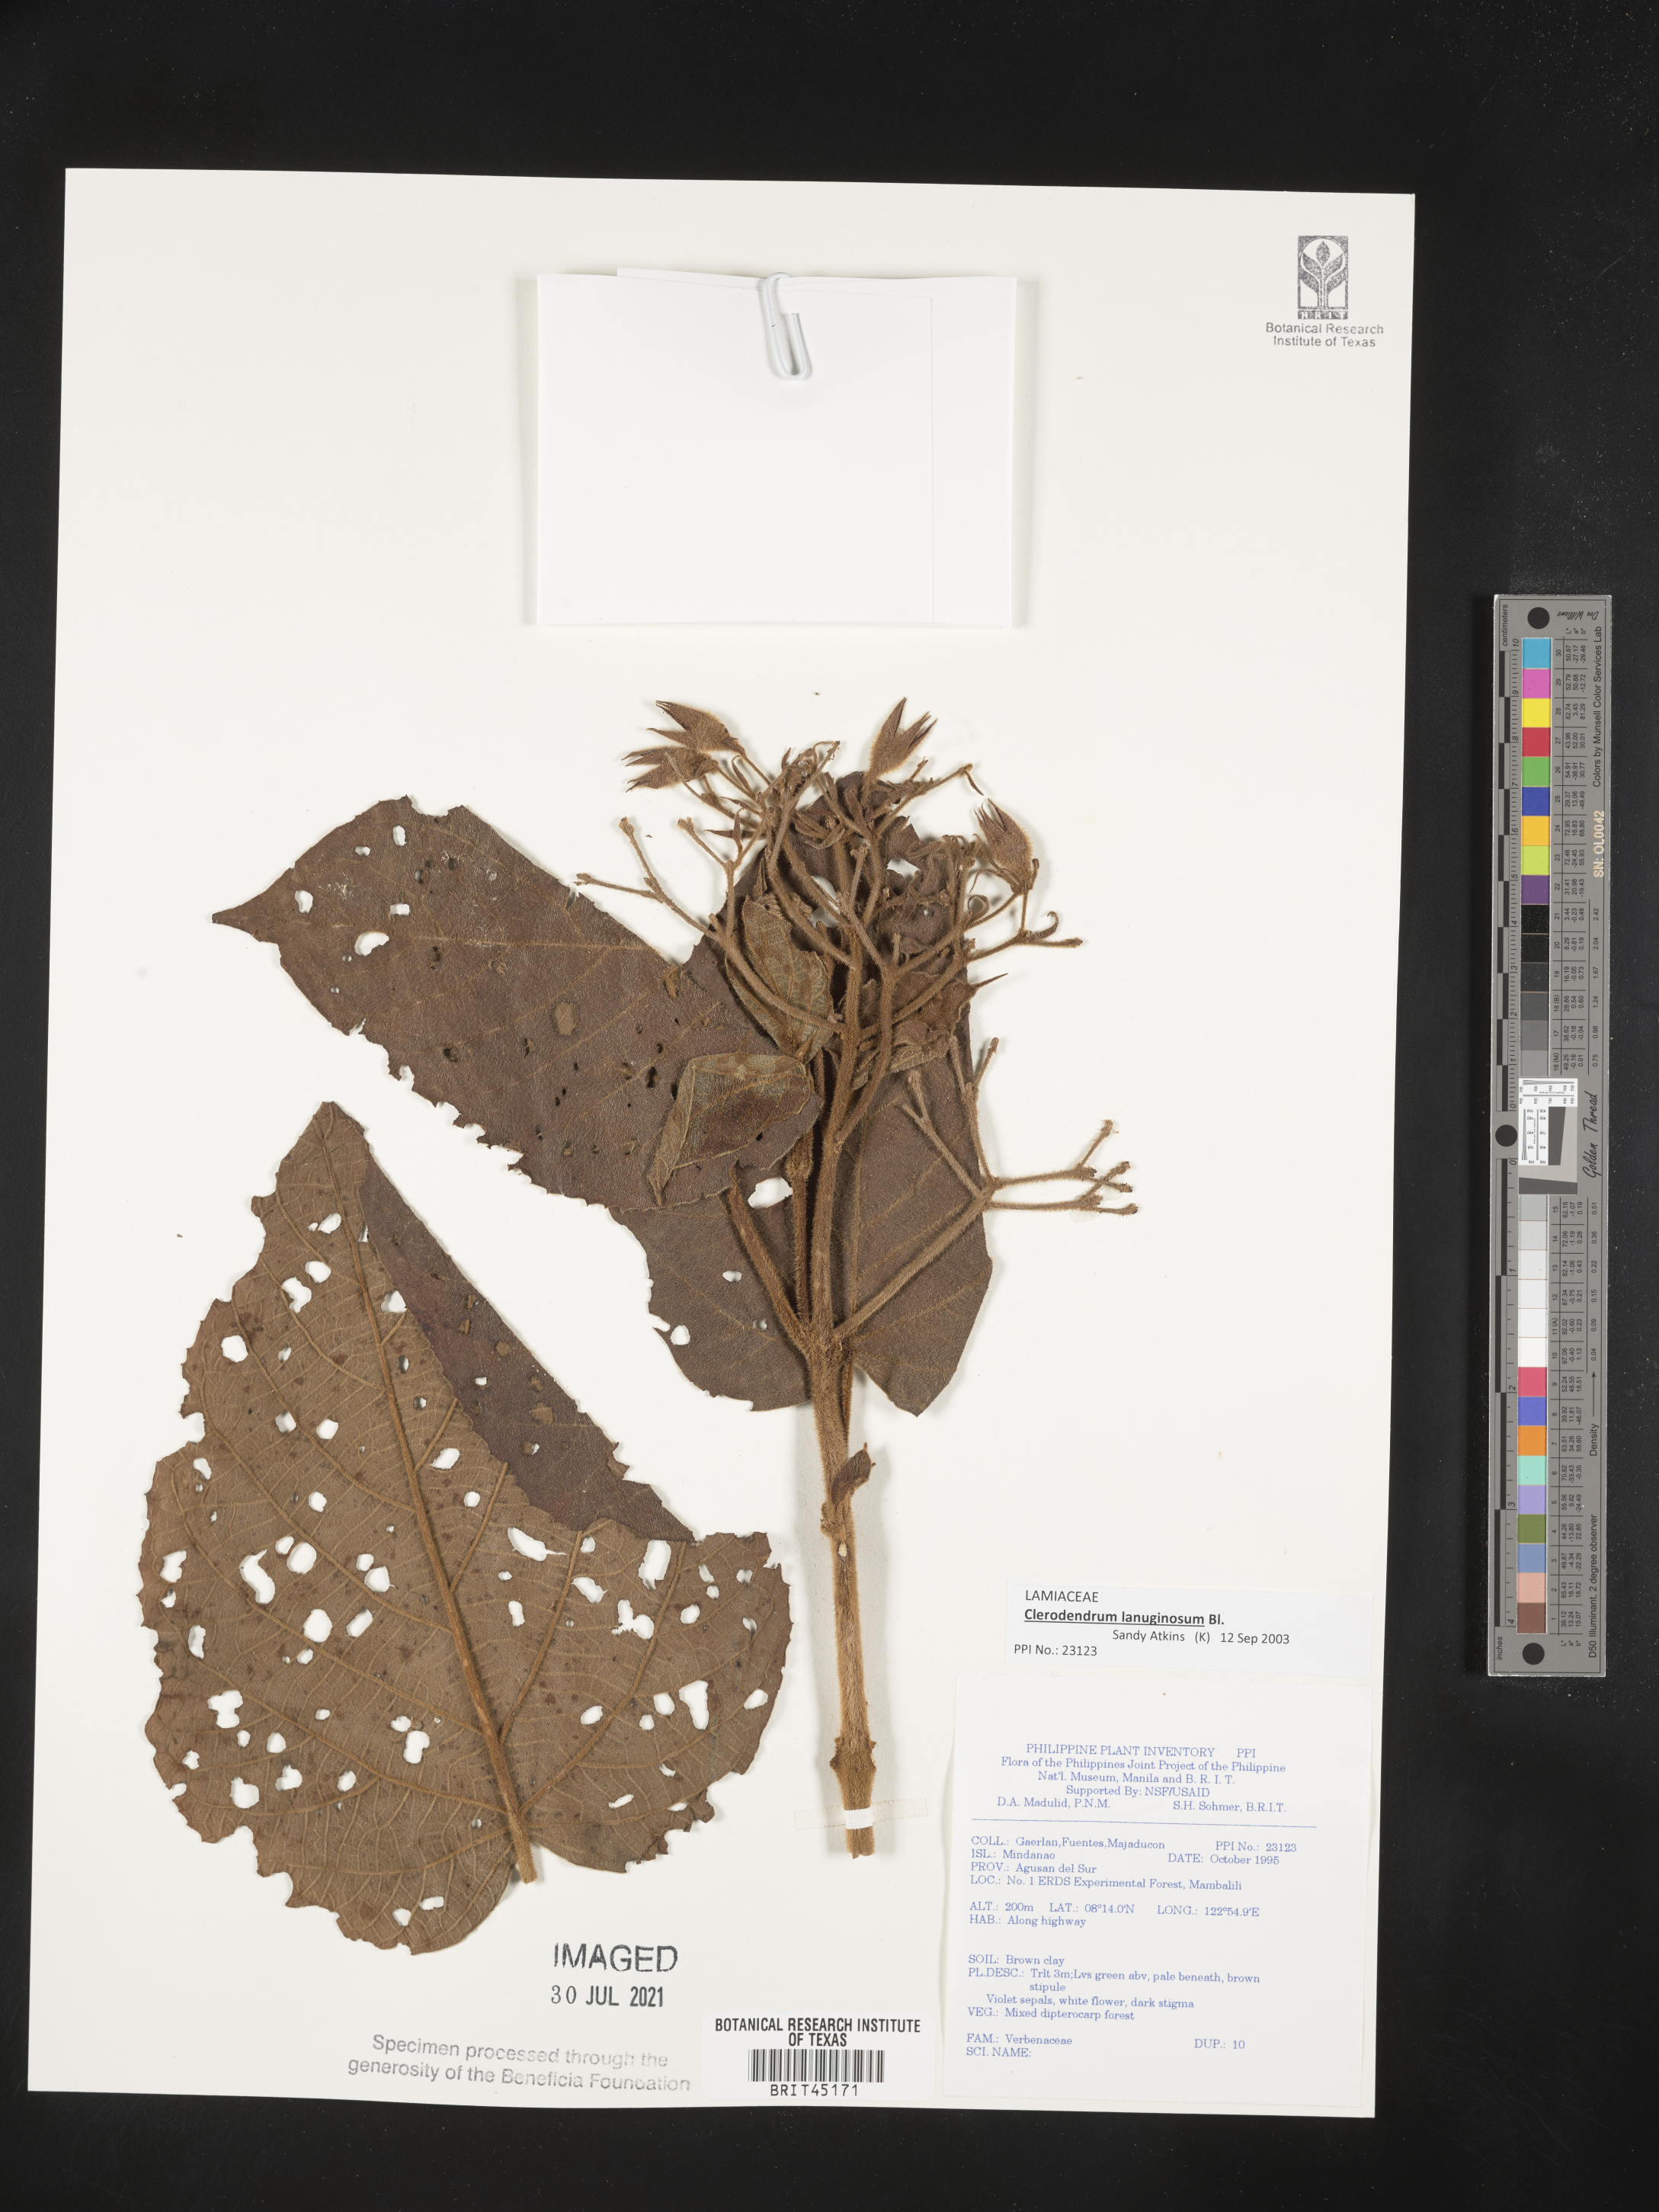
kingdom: Plantae
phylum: Tracheophyta
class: Magnoliopsida
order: Lamiales
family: Verbenaceae
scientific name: Verbenaceae
